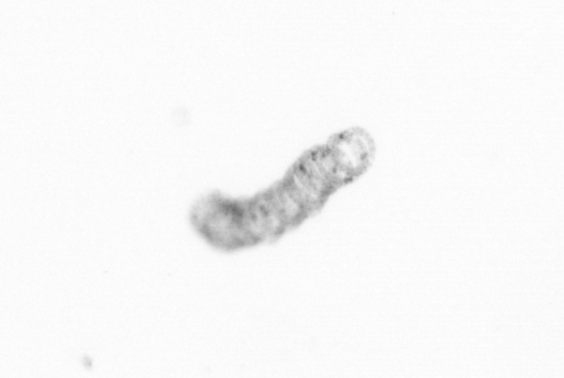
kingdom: Chromista
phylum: Ochrophyta
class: Bacillariophyceae
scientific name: Bacillariophyceae
